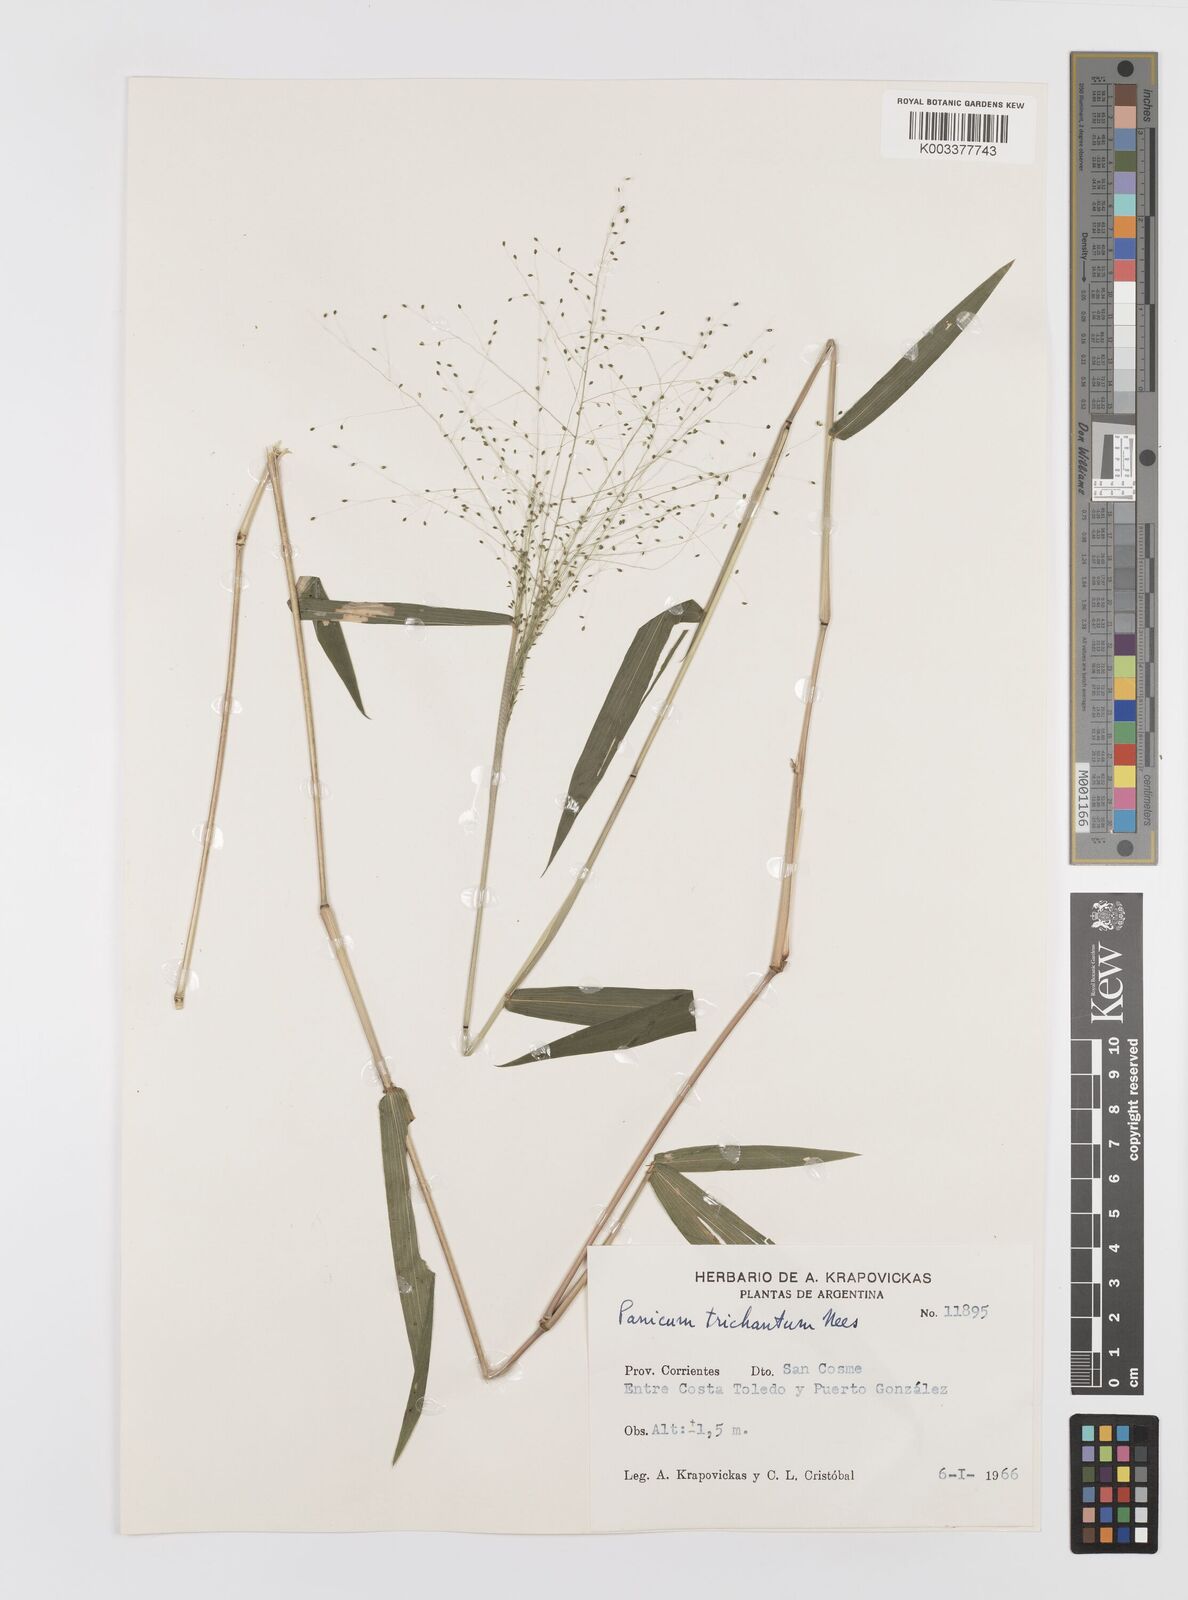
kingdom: Plantae
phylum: Tracheophyta
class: Liliopsida
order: Poales
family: Poaceae
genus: Panicum
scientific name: Panicum trichanthum
